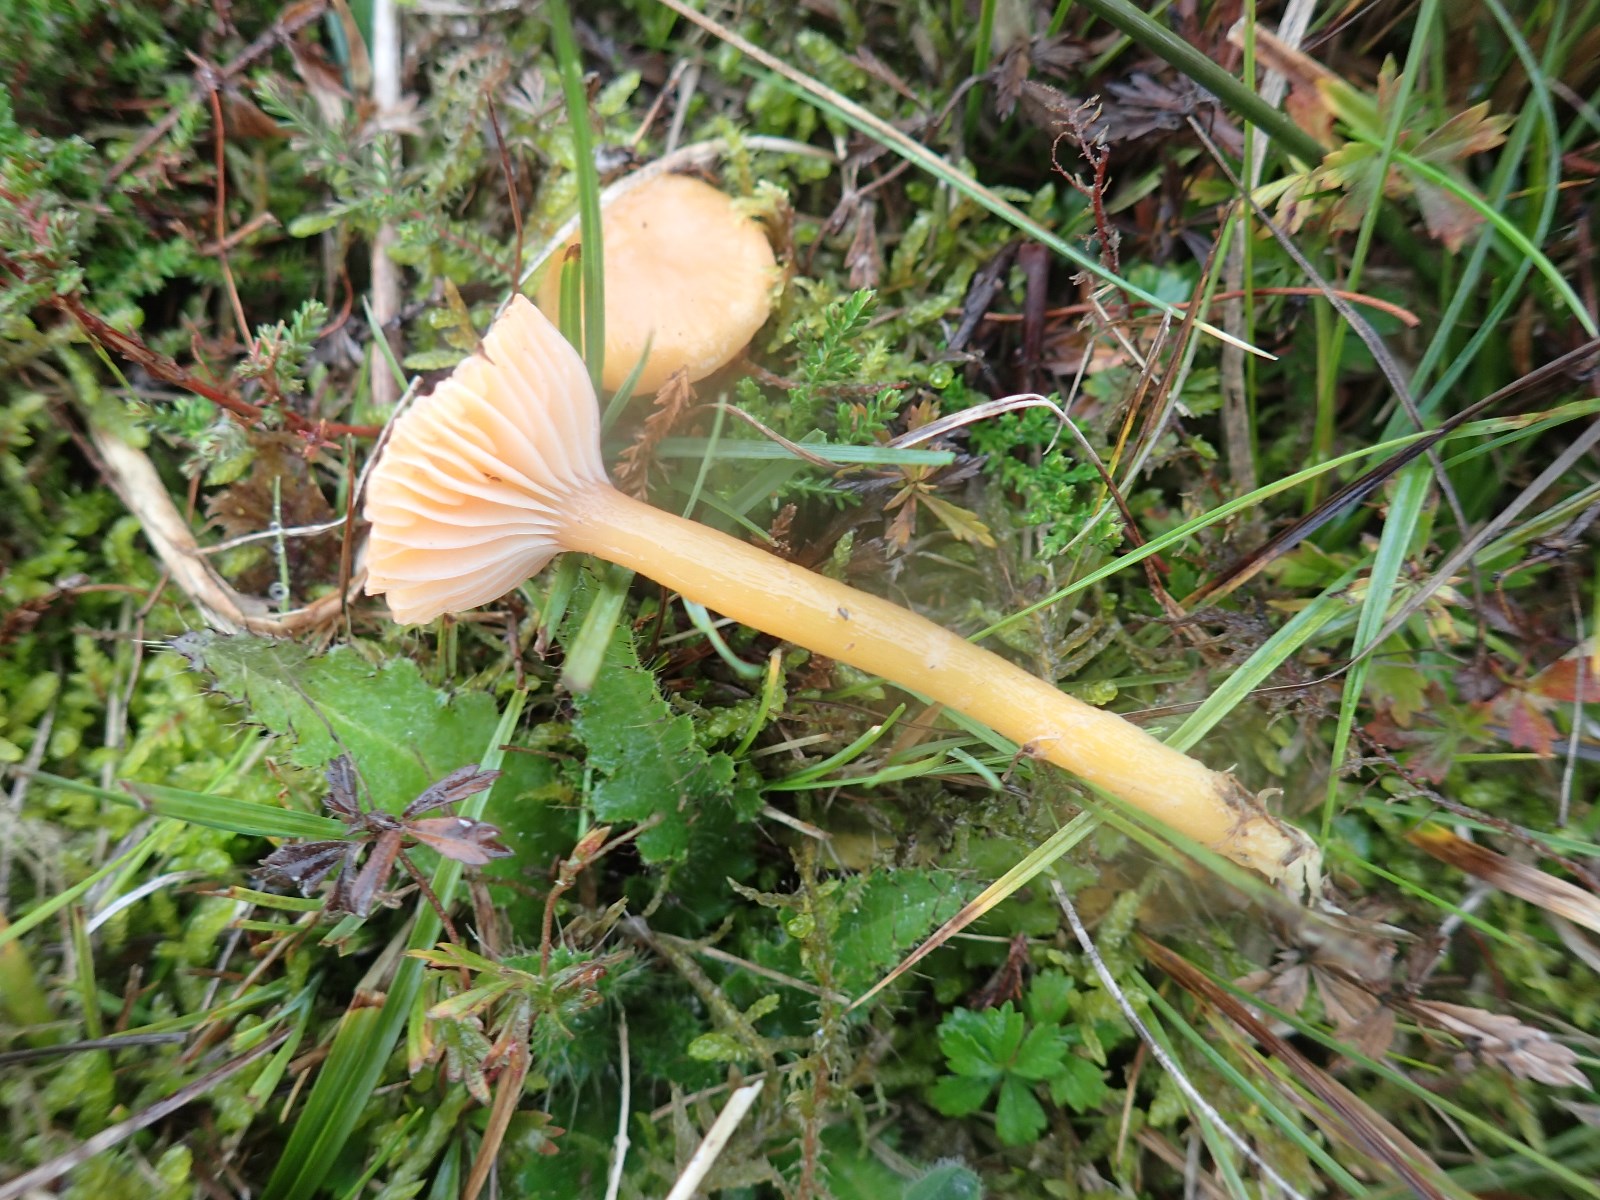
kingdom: Fungi
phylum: Basidiomycota
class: Agaricomycetes
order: Agaricales
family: Hygrophoraceae
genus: Gliophorus
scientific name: Gliophorus laetus
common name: brusk-vokshat
